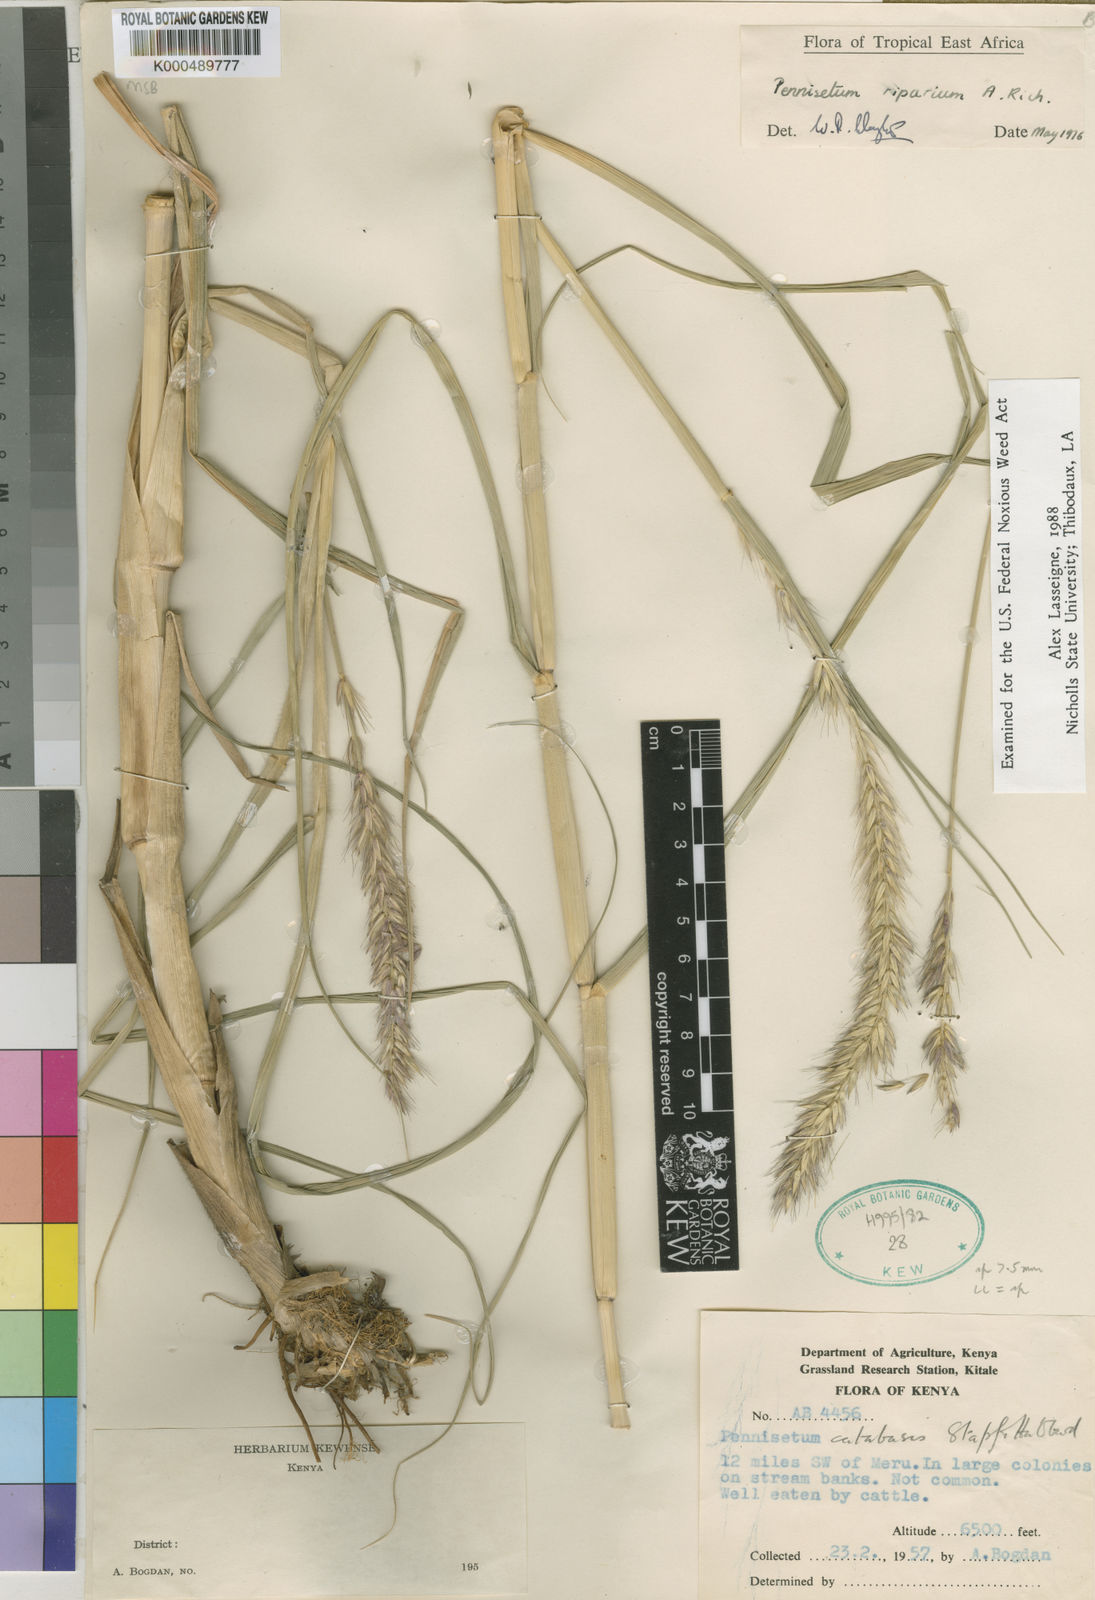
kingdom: Plantae
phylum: Tracheophyta
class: Liliopsida
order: Poales
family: Poaceae
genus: Cenchrus
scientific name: Cenchrus Pennisetum spec
